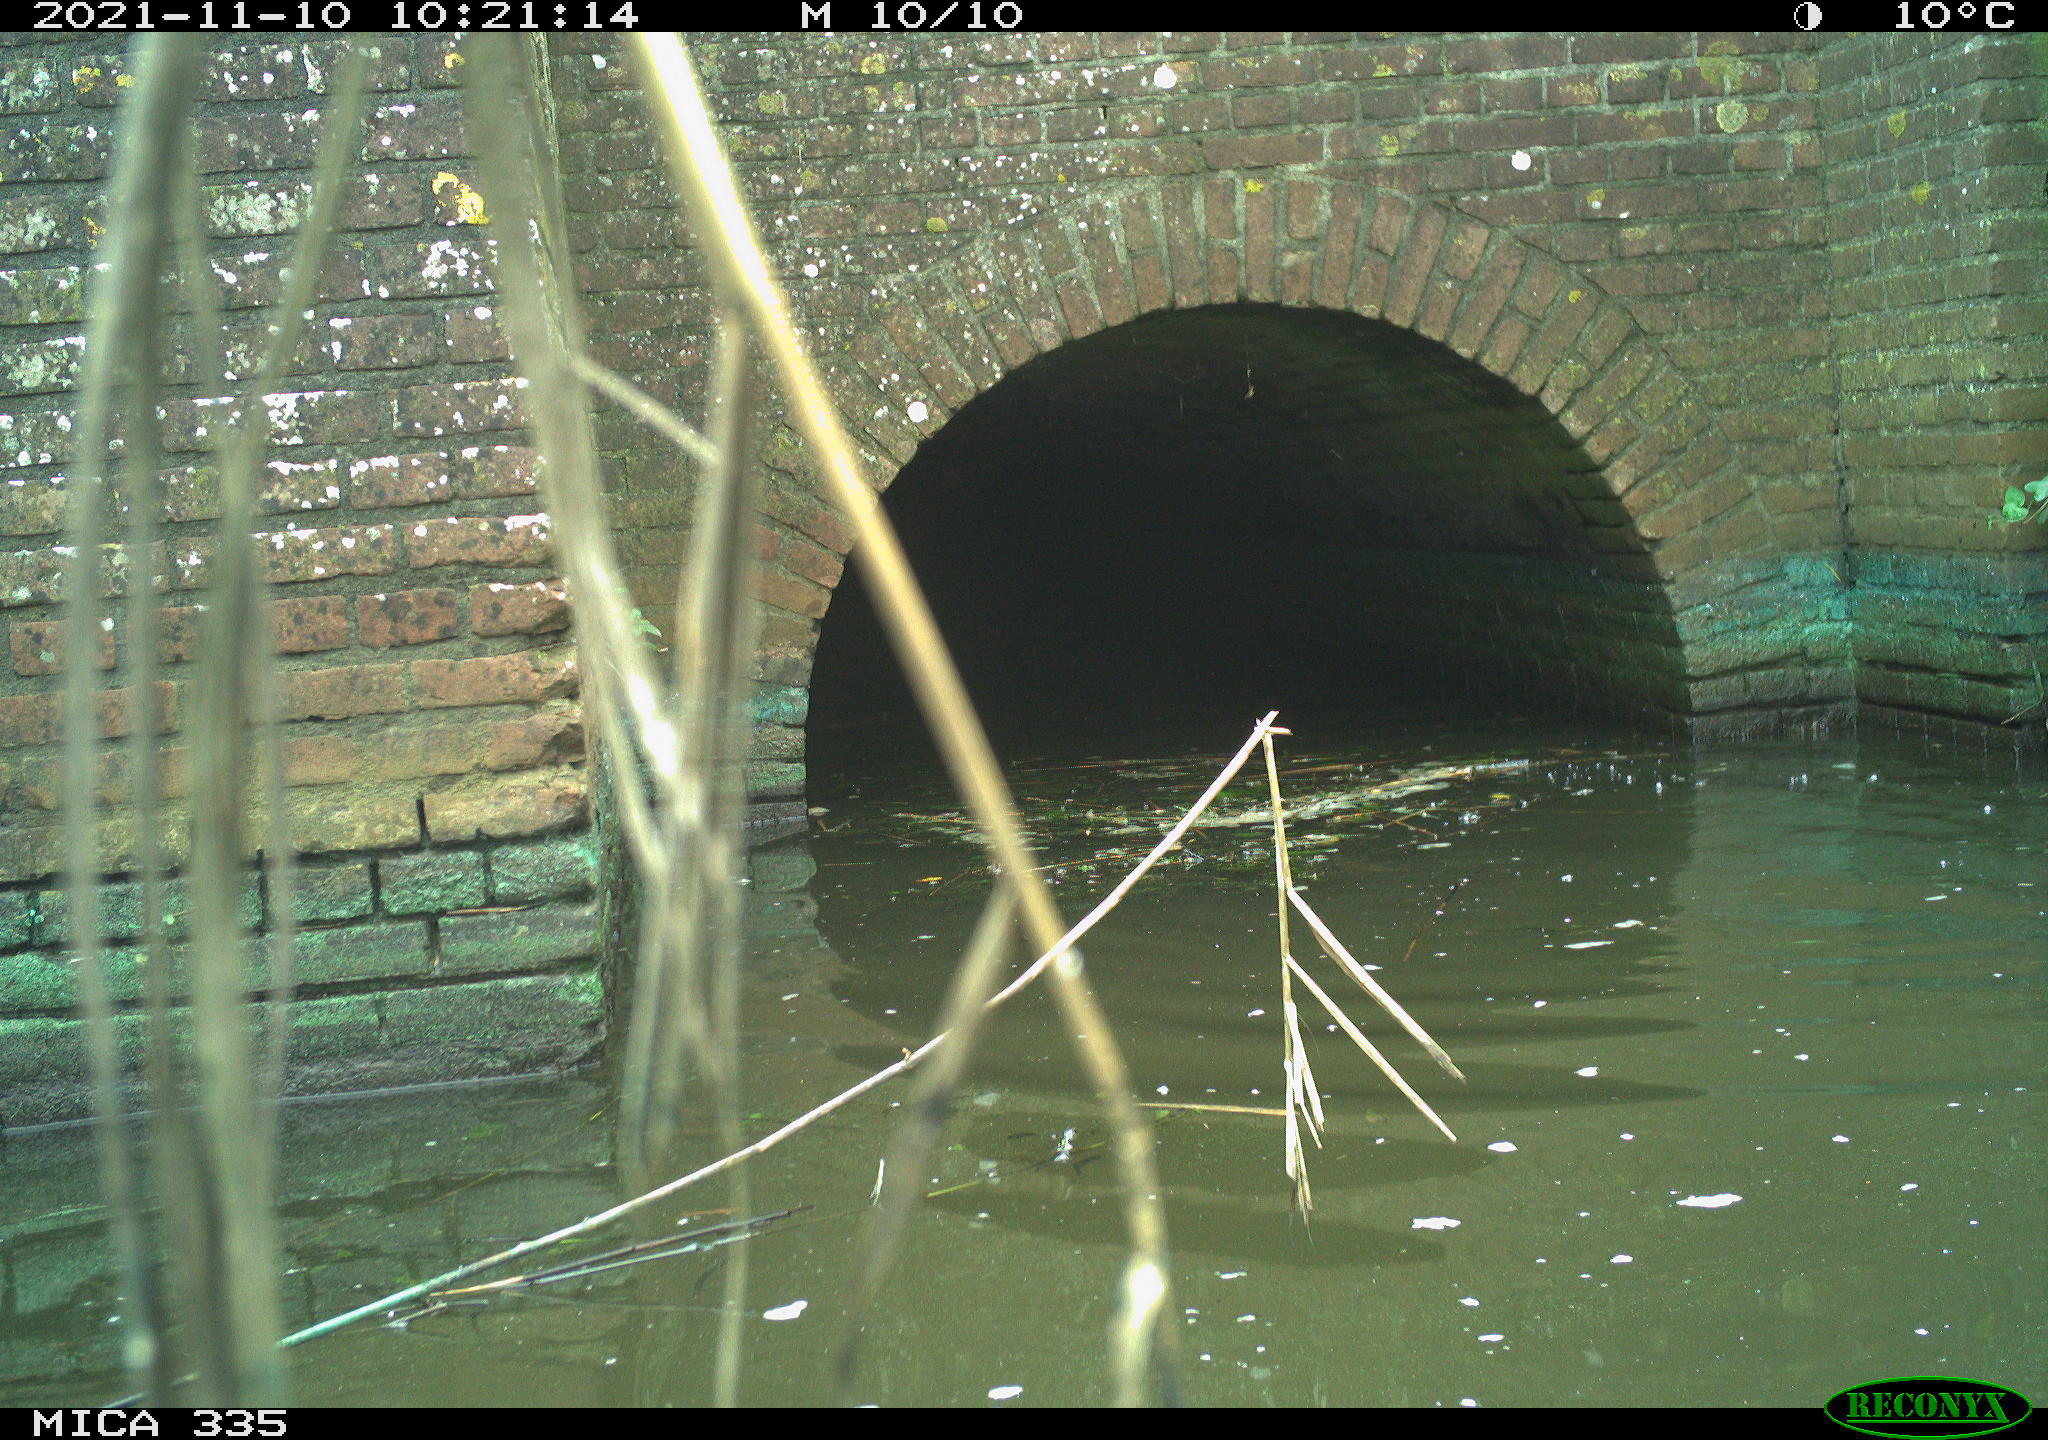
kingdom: Animalia
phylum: Chordata
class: Aves
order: Suliformes
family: Phalacrocoracidae
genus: Phalacrocorax
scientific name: Phalacrocorax carbo
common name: Great cormorant
